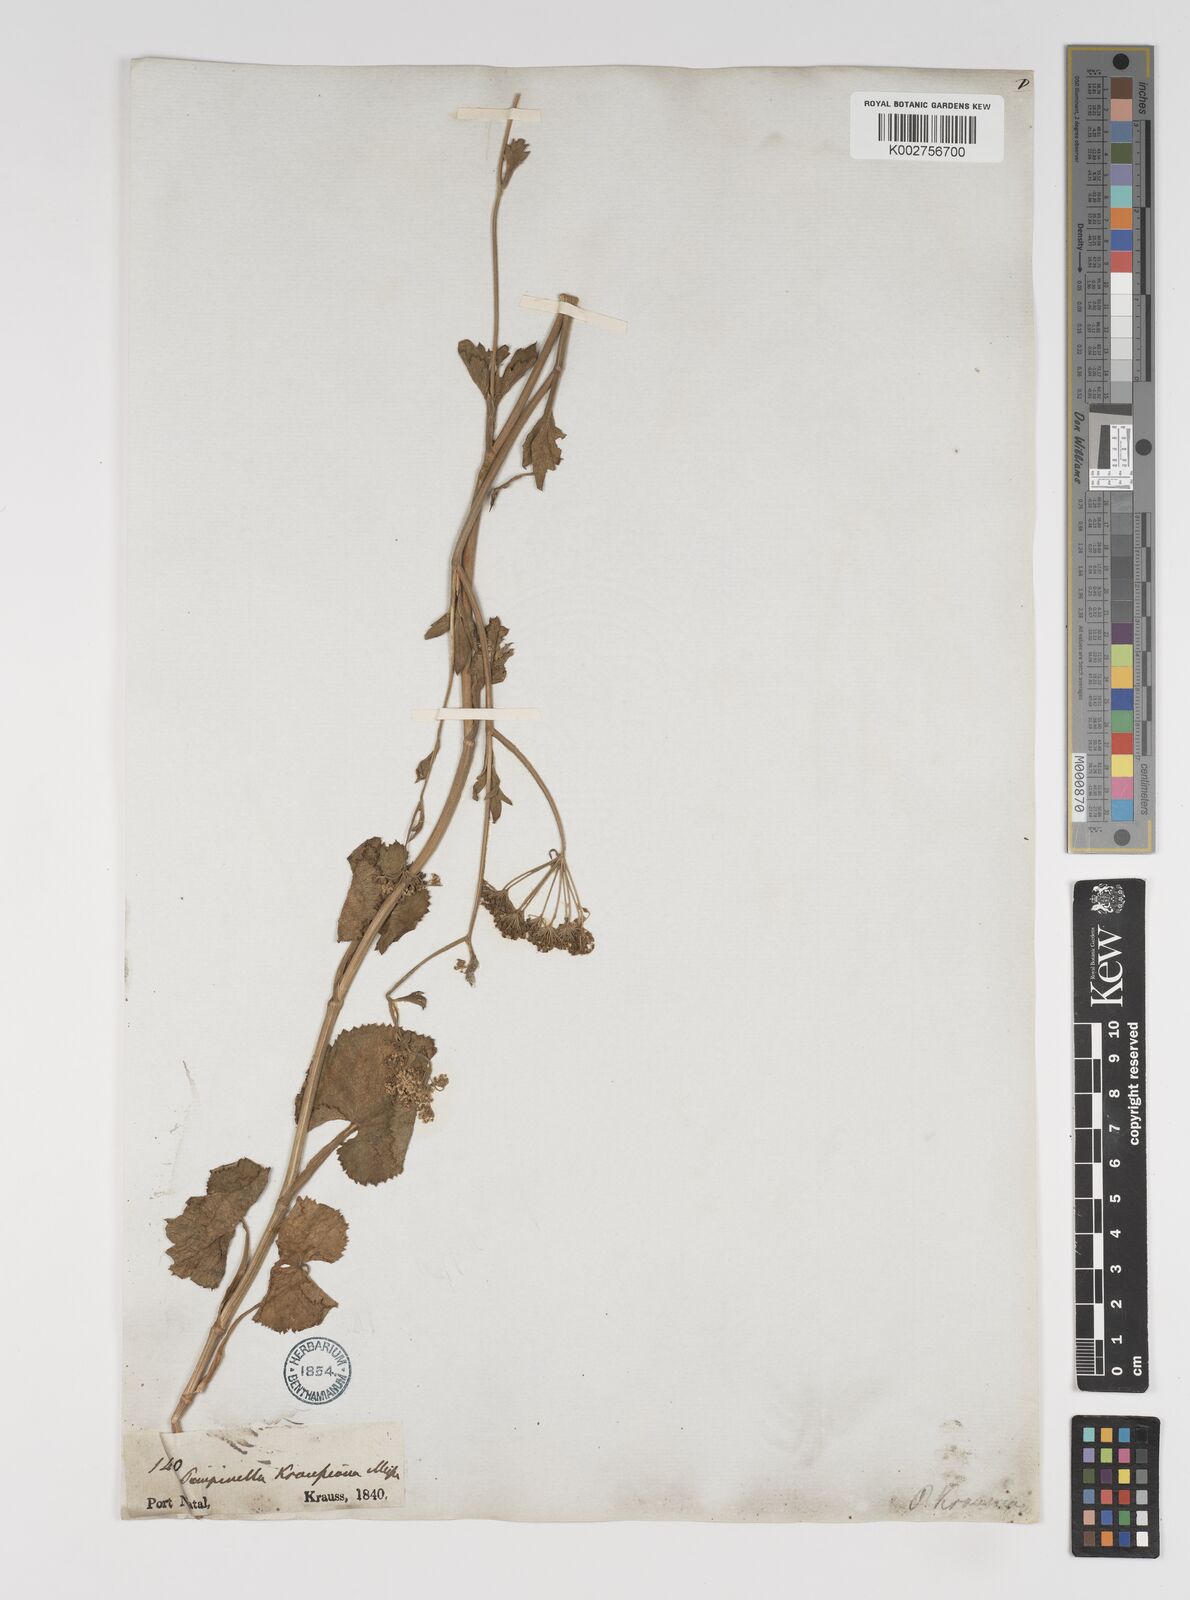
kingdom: Plantae
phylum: Tracheophyta
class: Magnoliopsida
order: Apiales
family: Apiaceae
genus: Pimpinella
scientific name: Pimpinella
